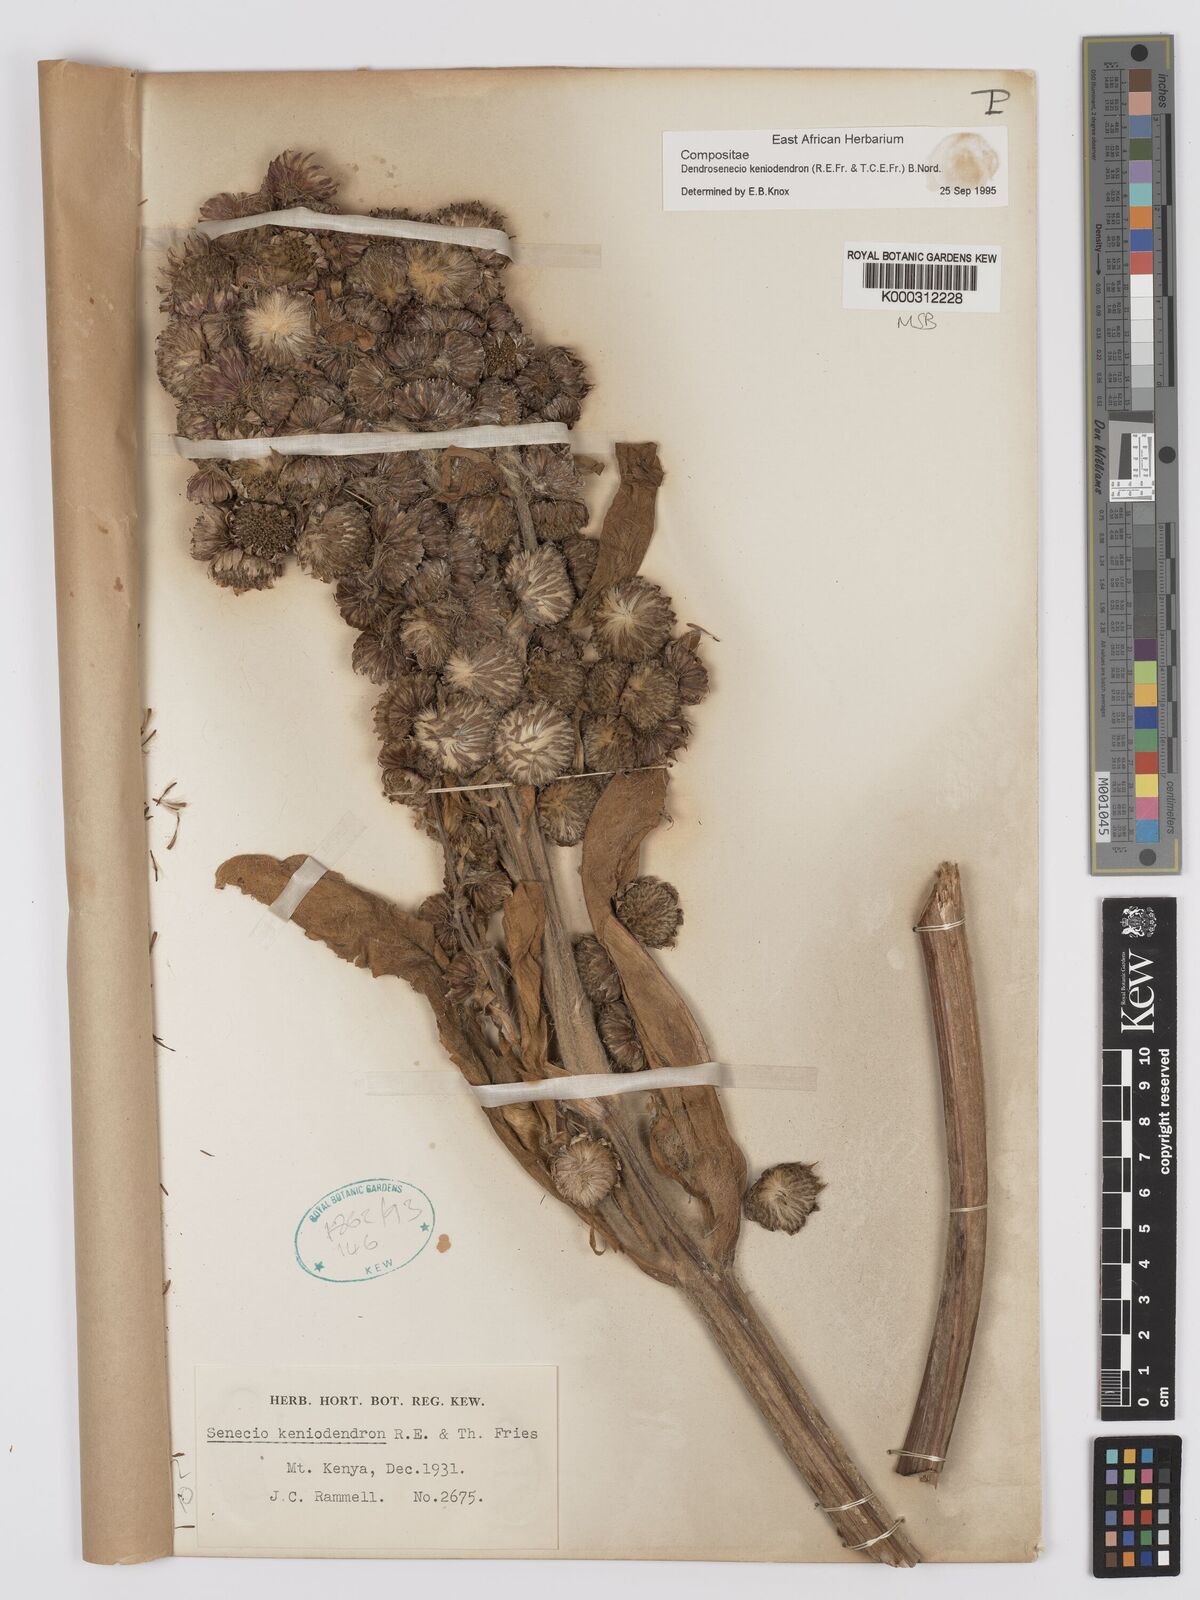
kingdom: Plantae
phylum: Tracheophyta
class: Magnoliopsida
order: Asterales
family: Asteraceae
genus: Dendrosenecio
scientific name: Dendrosenecio keniodendron
